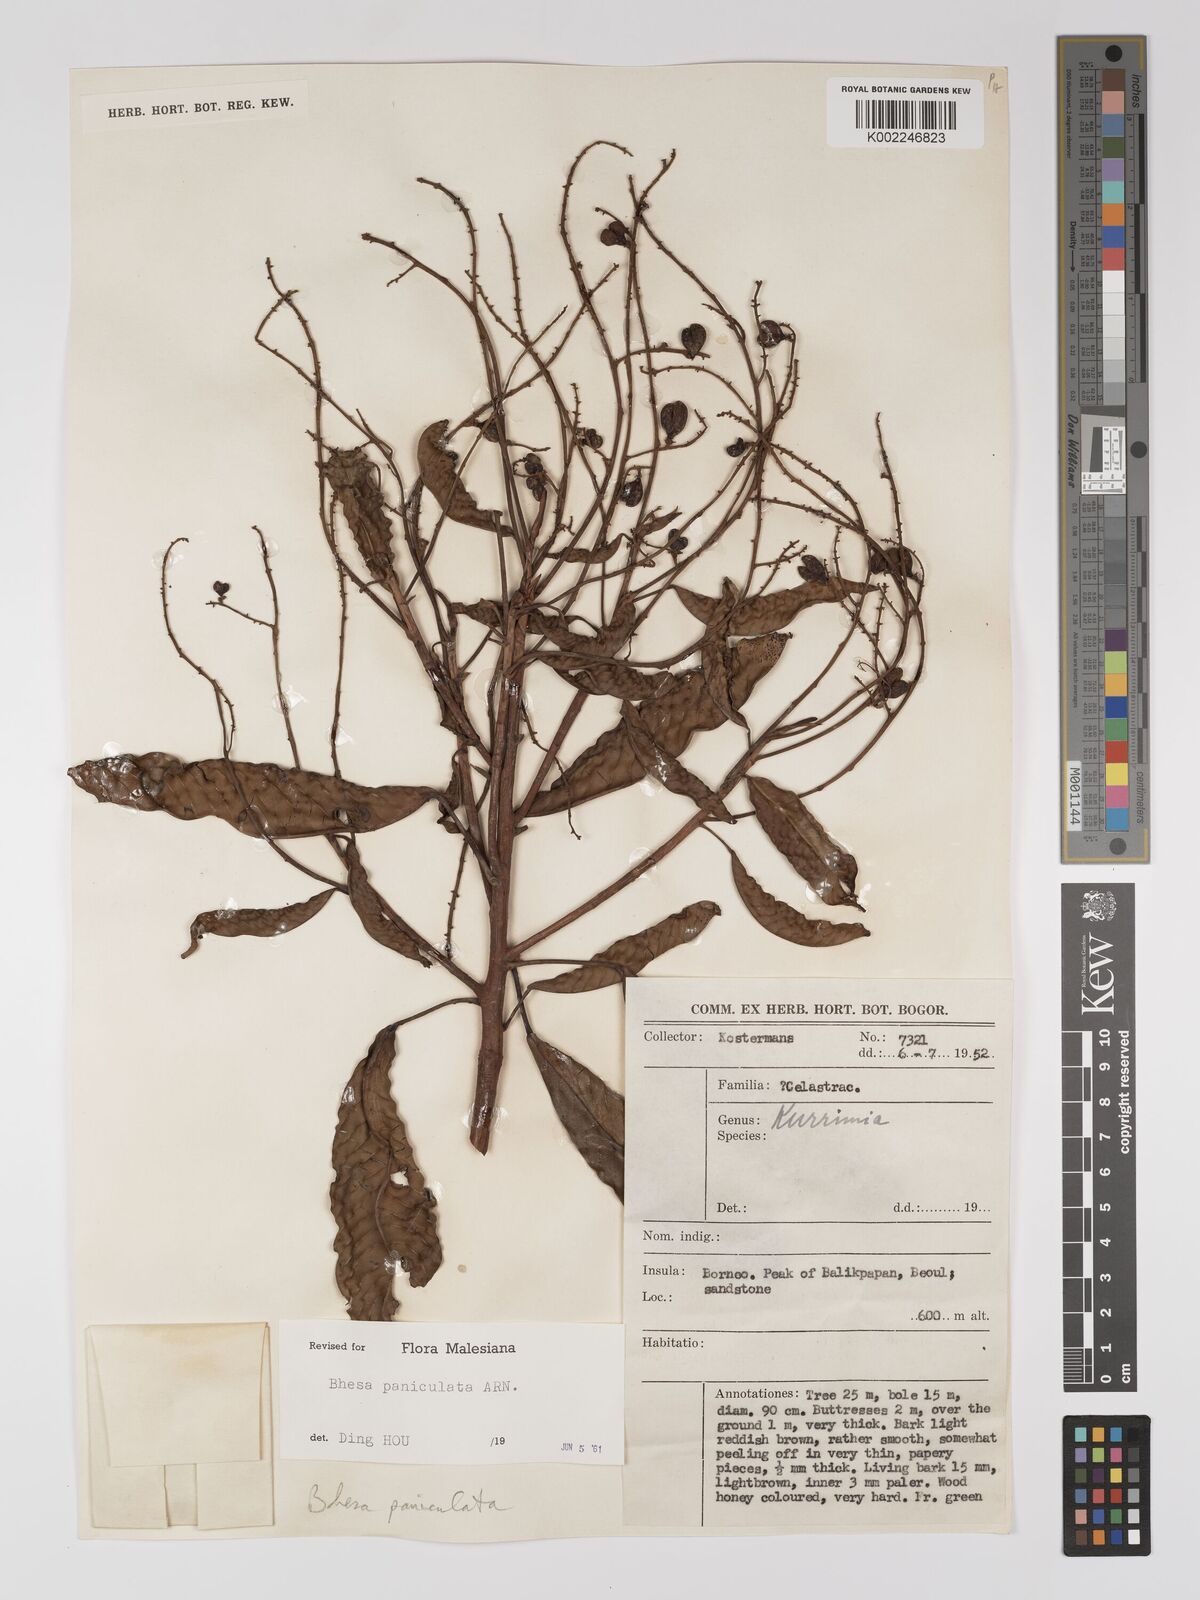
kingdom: Plantae
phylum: Tracheophyta
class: Magnoliopsida
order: Malpighiales
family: Centroplacaceae
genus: Bhesa
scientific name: Bhesa paniculata
